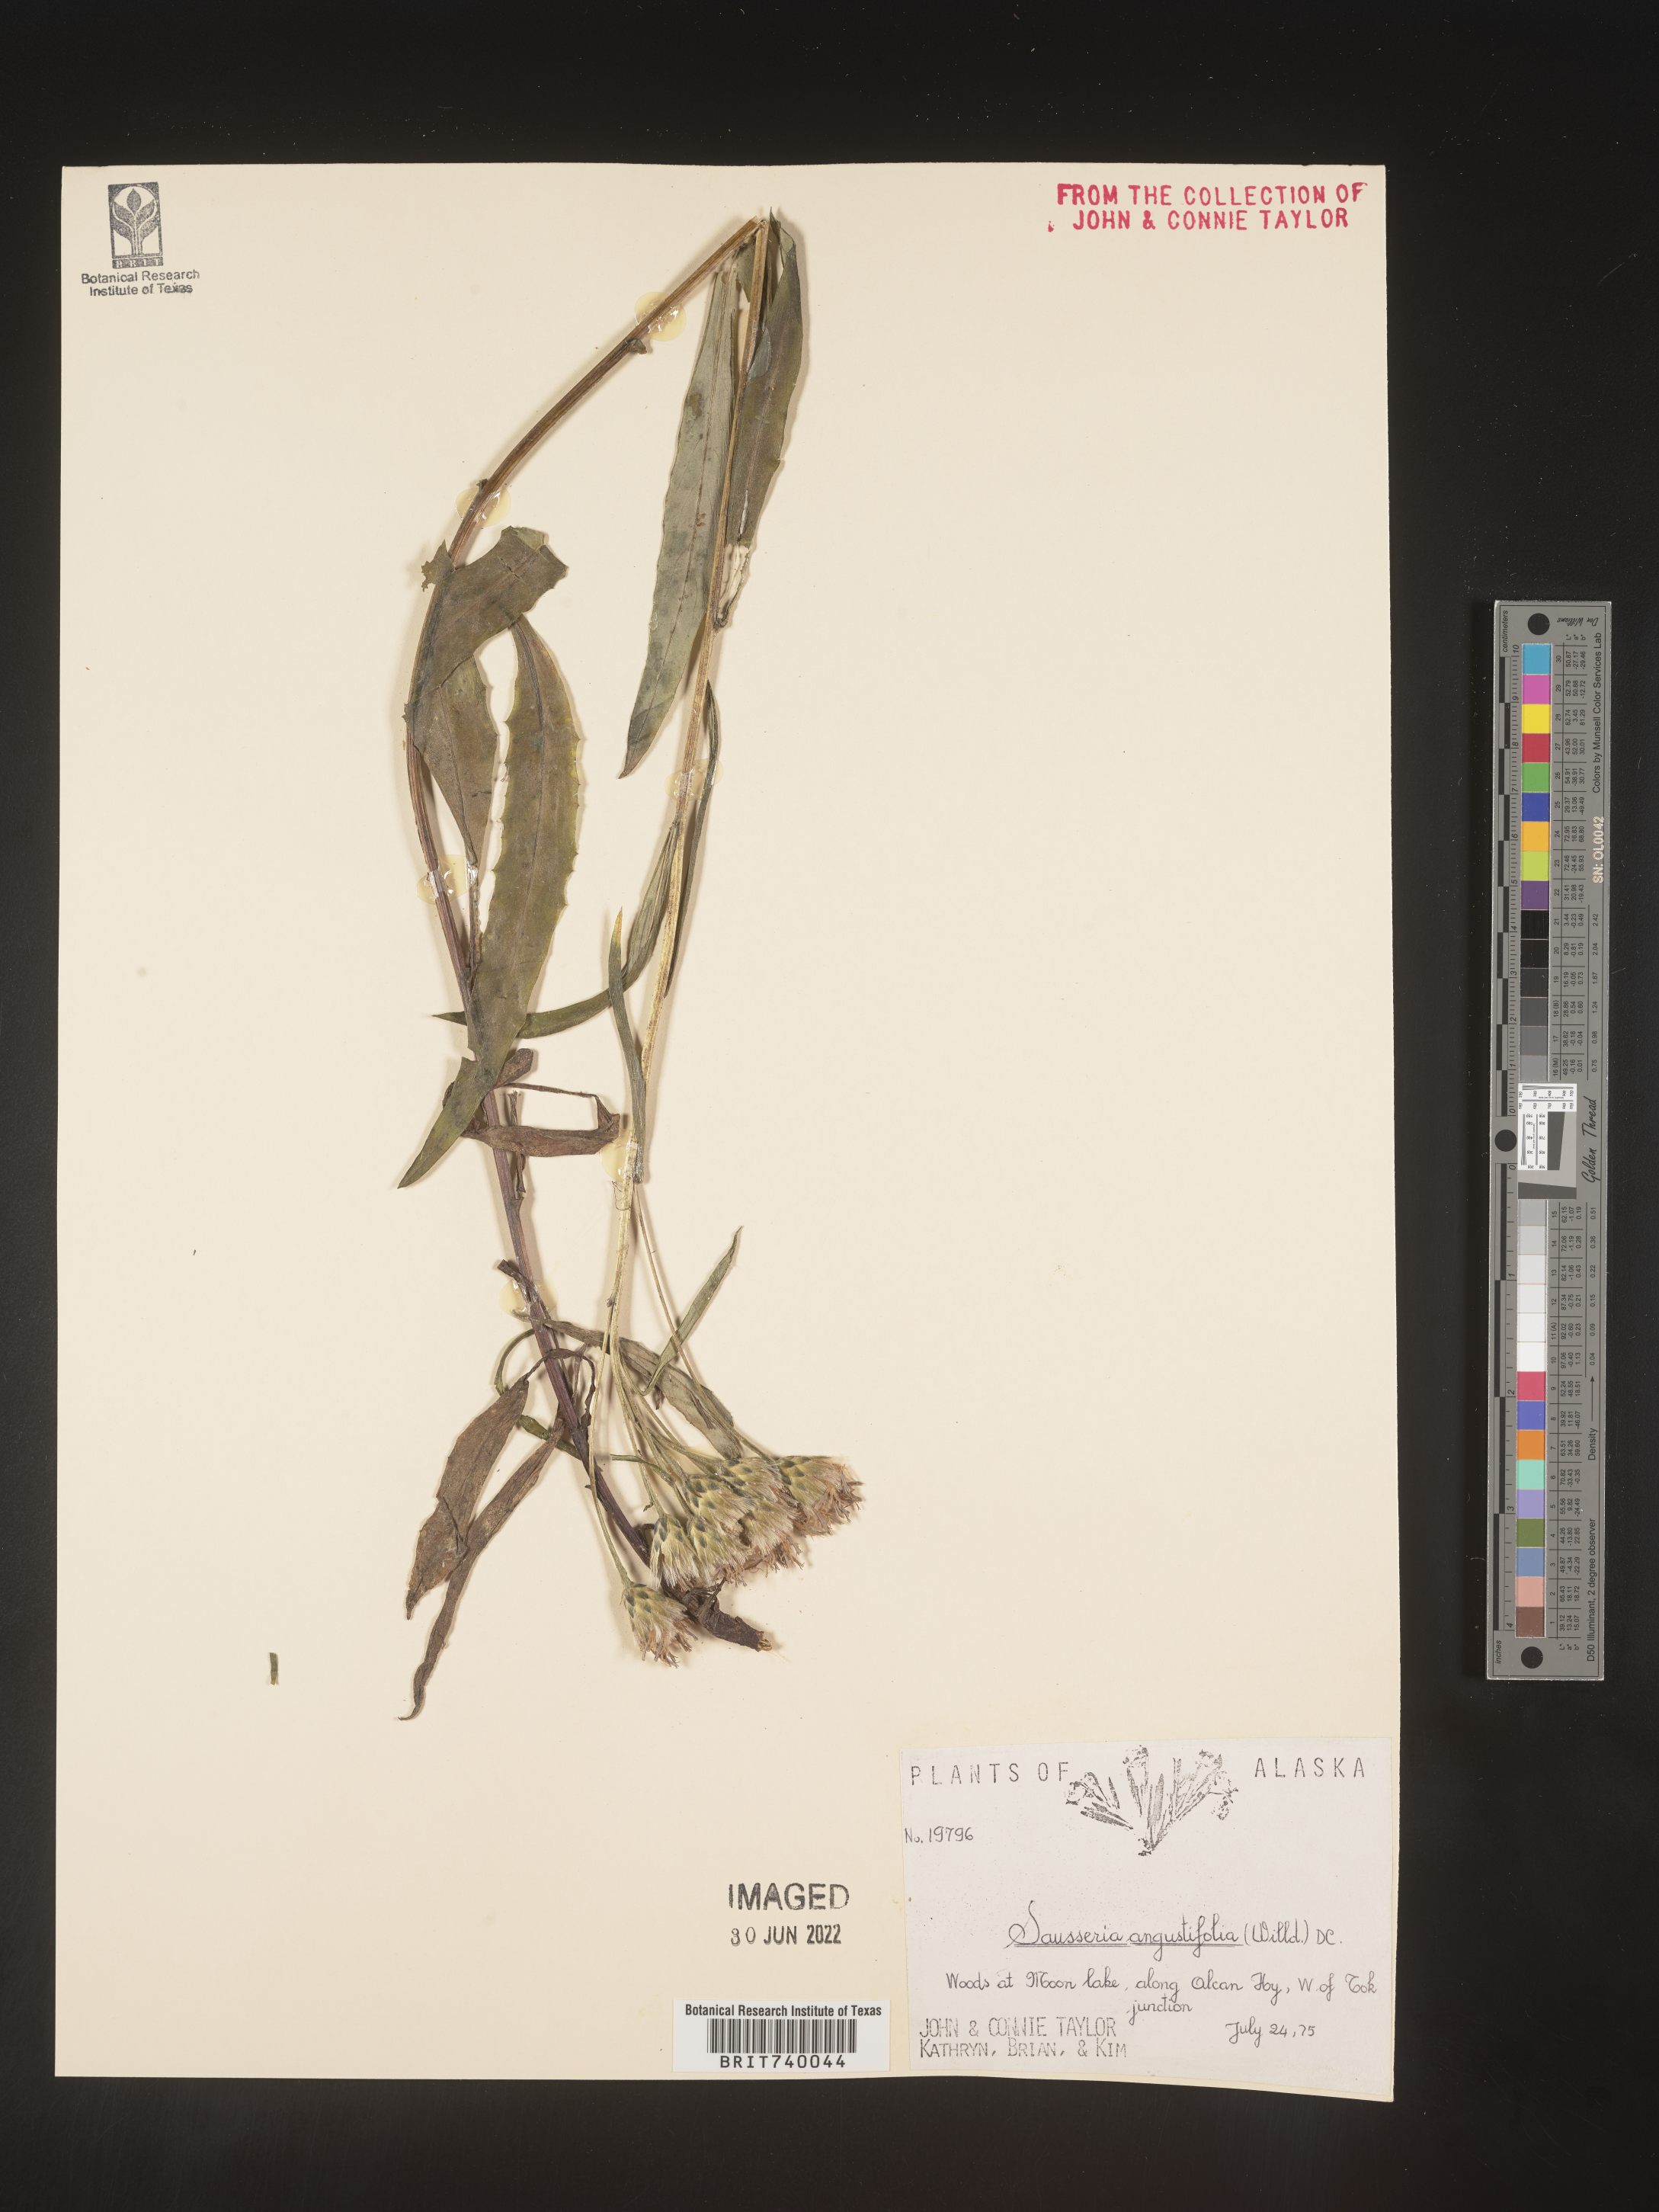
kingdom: Plantae
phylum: Tracheophyta
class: Magnoliopsida
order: Asterales
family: Asteraceae
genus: Saussurea
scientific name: Saussurea
